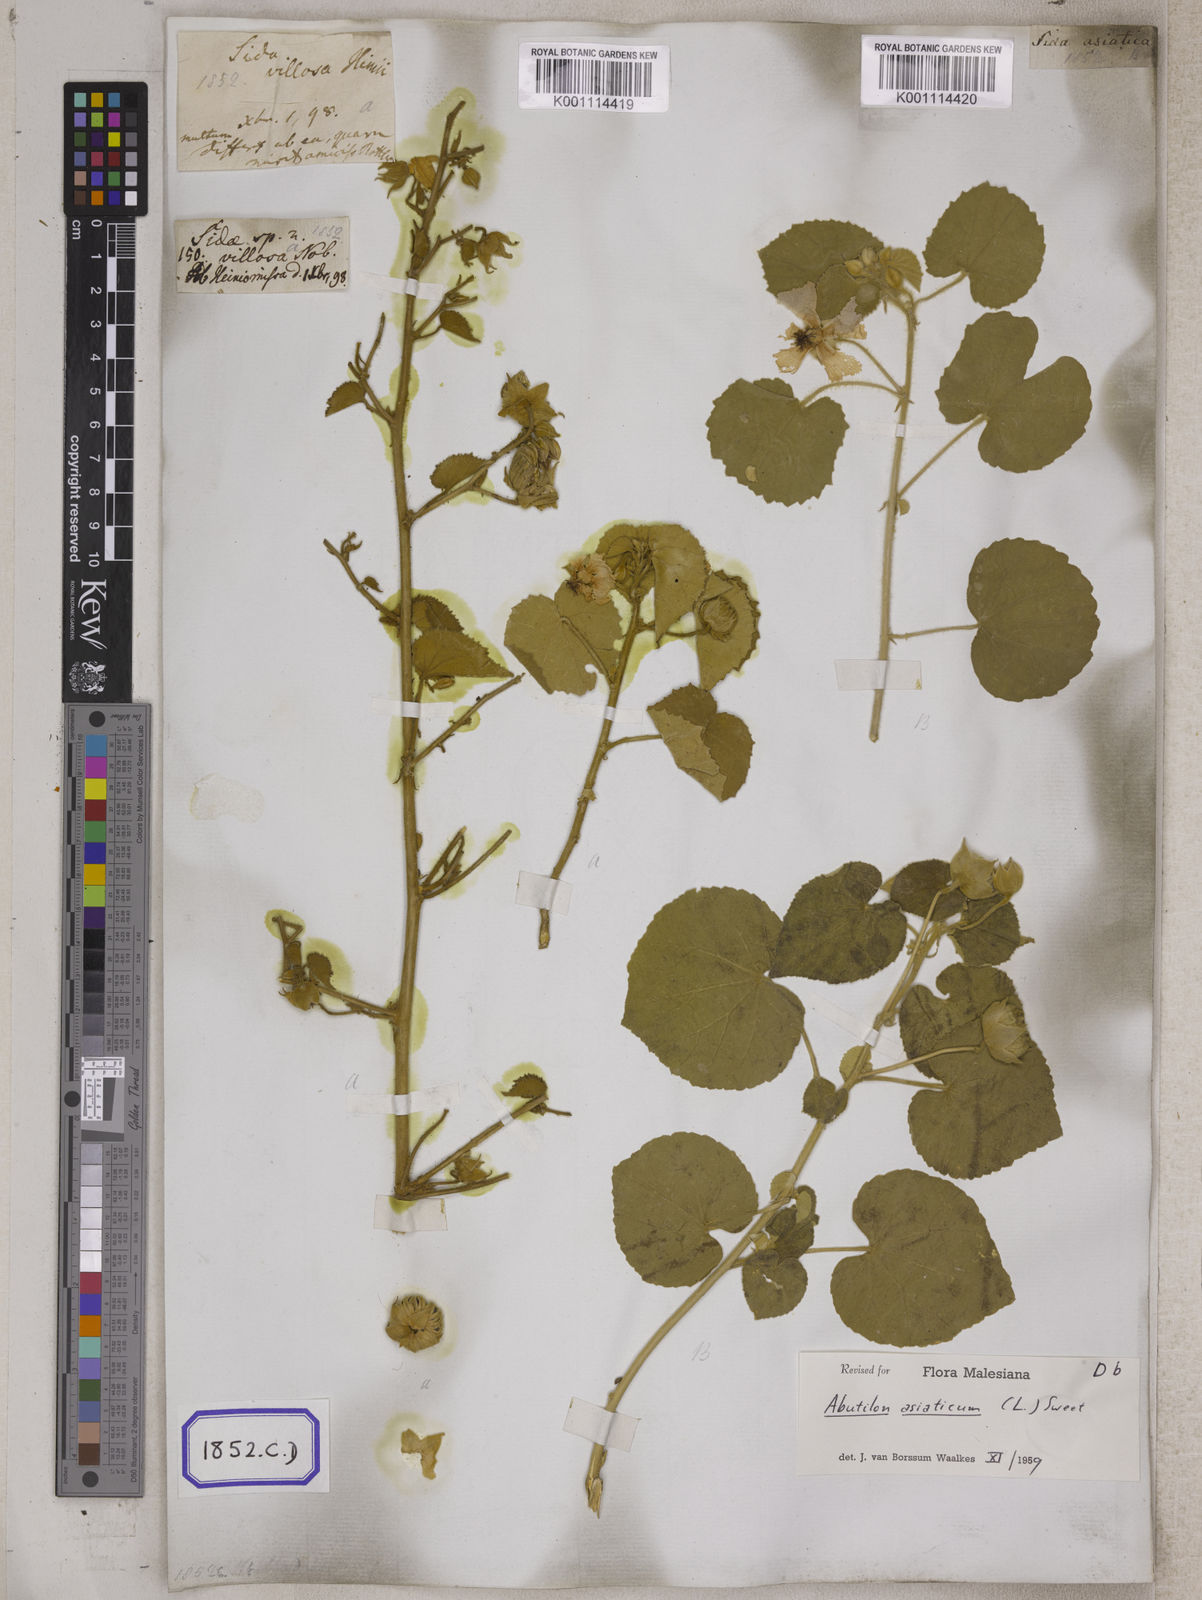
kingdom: Plantae
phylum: Tracheophyta
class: Magnoliopsida
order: Malvales
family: Malvaceae
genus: Abutilon
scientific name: Abutilon pannosum
